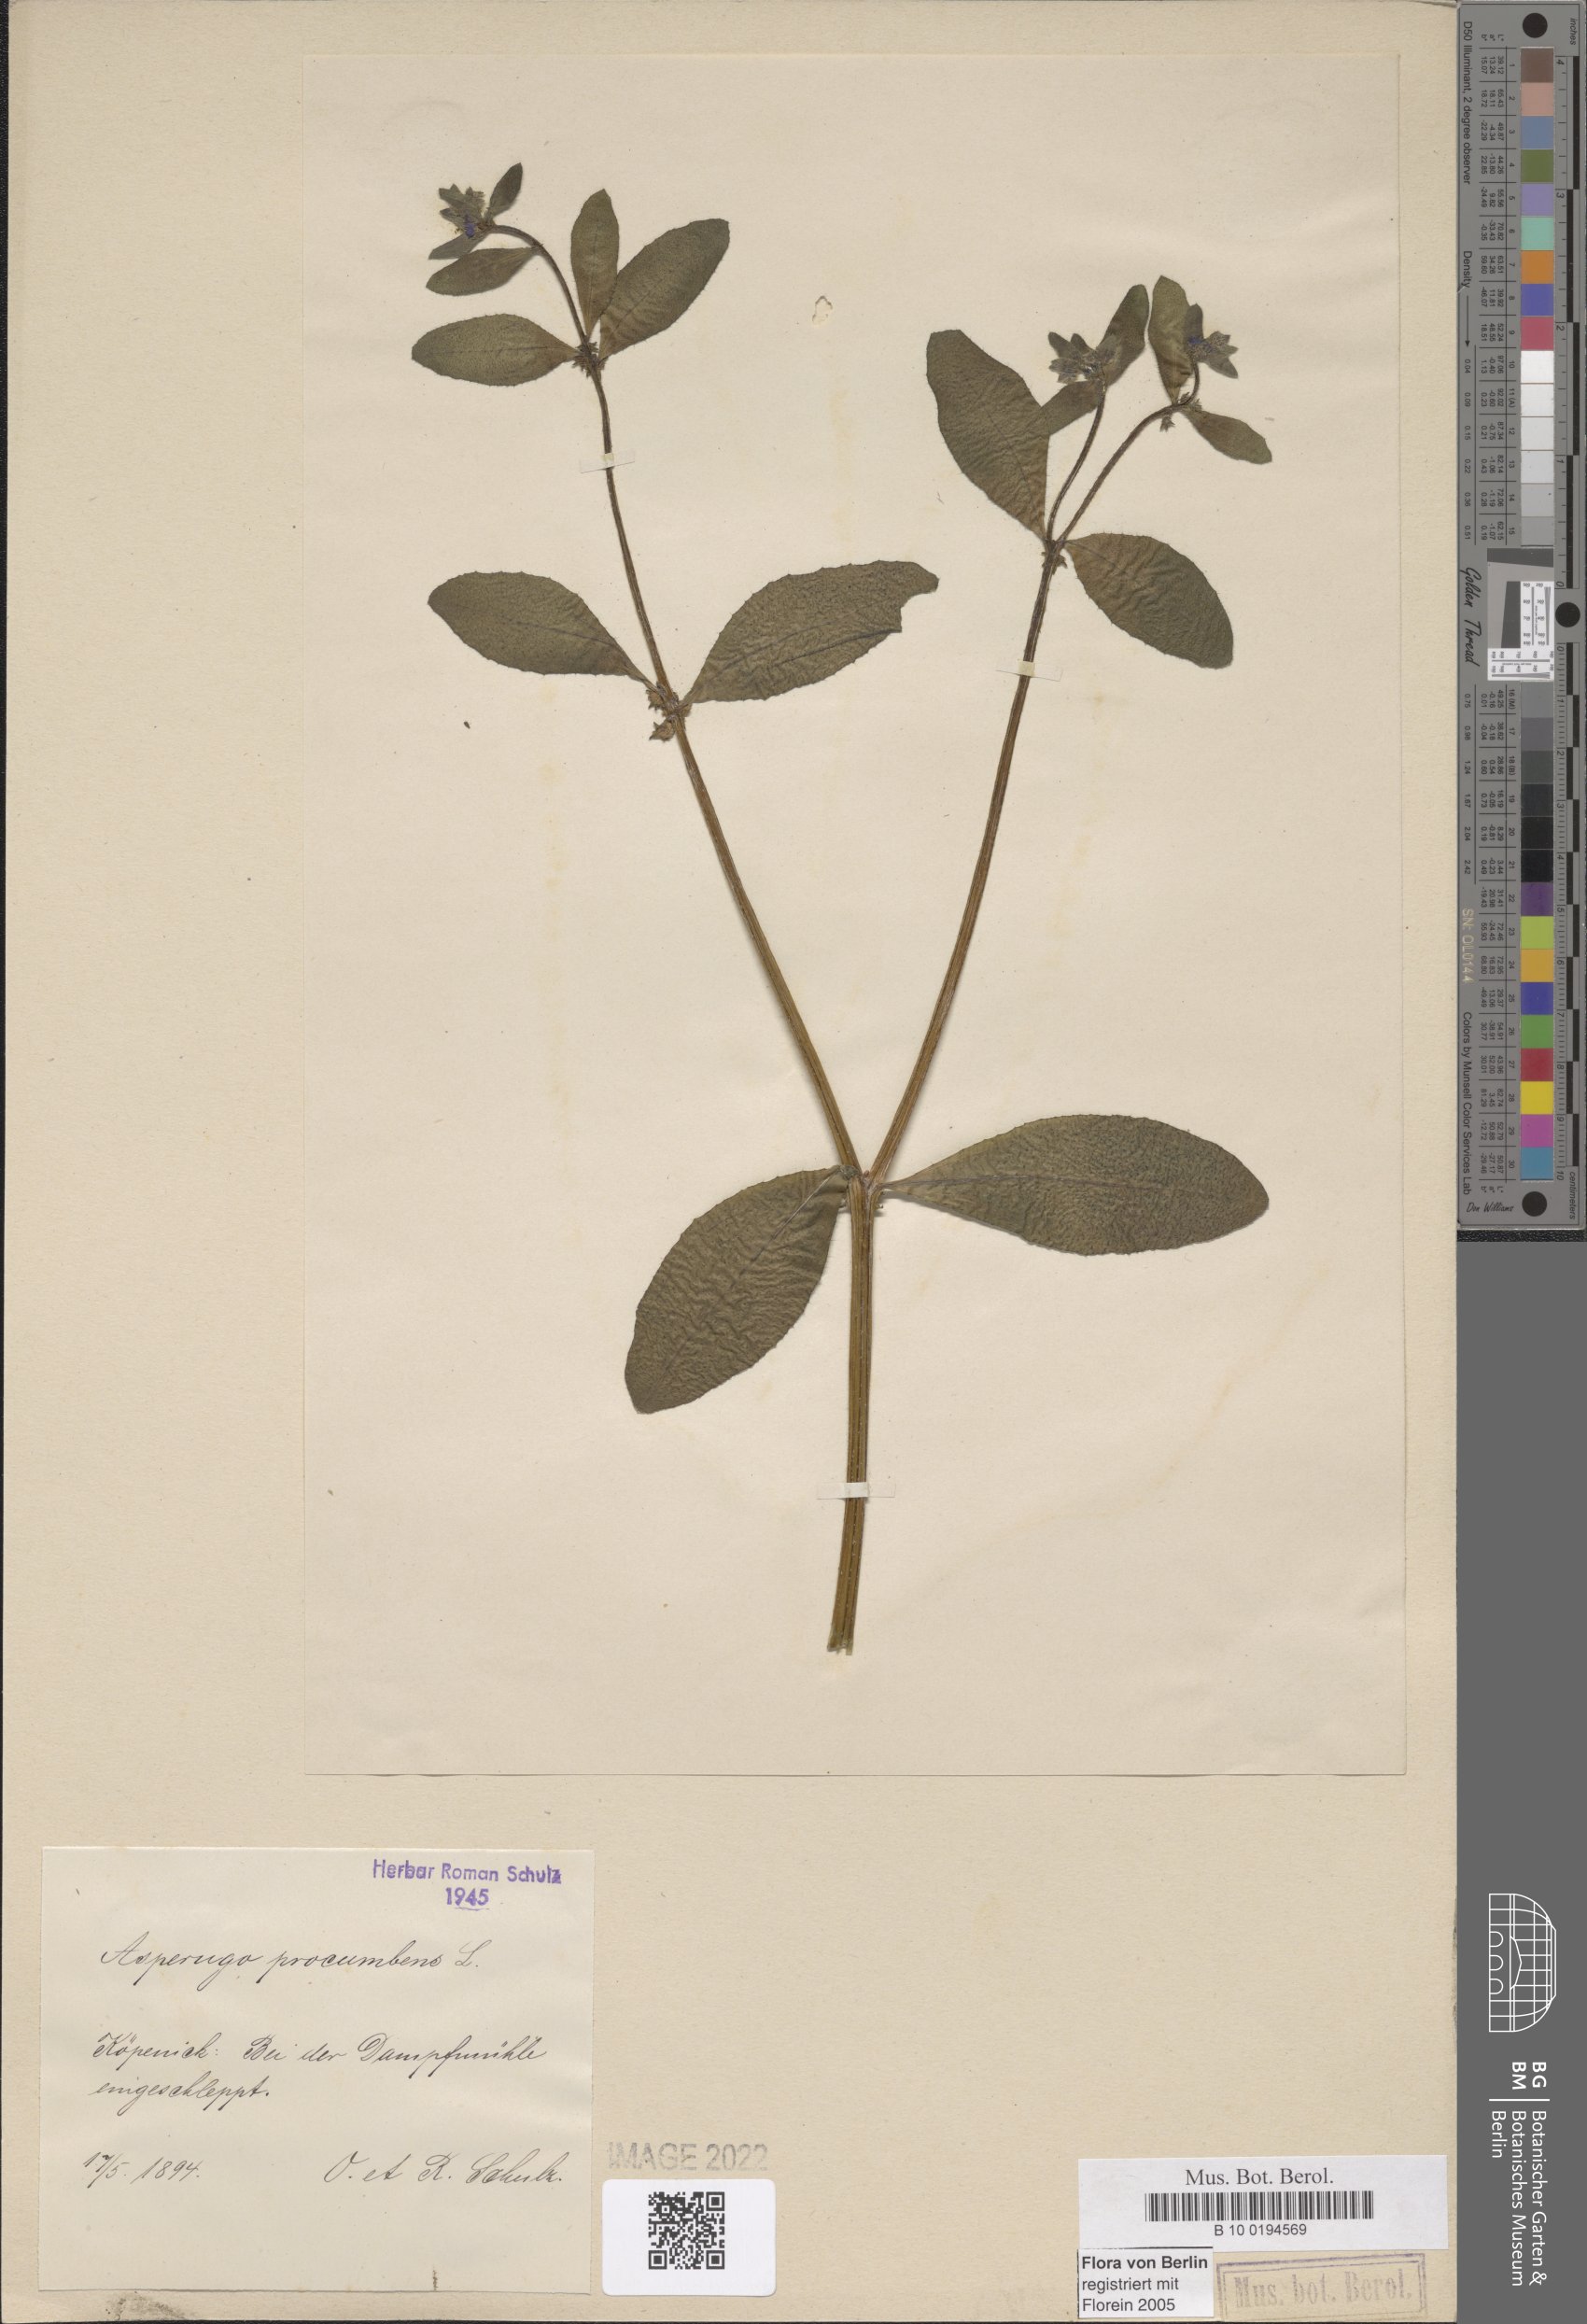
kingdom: Plantae
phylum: Tracheophyta
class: Magnoliopsida
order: Boraginales
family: Boraginaceae
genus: Asperugo
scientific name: Asperugo procumbens
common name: Madwort
